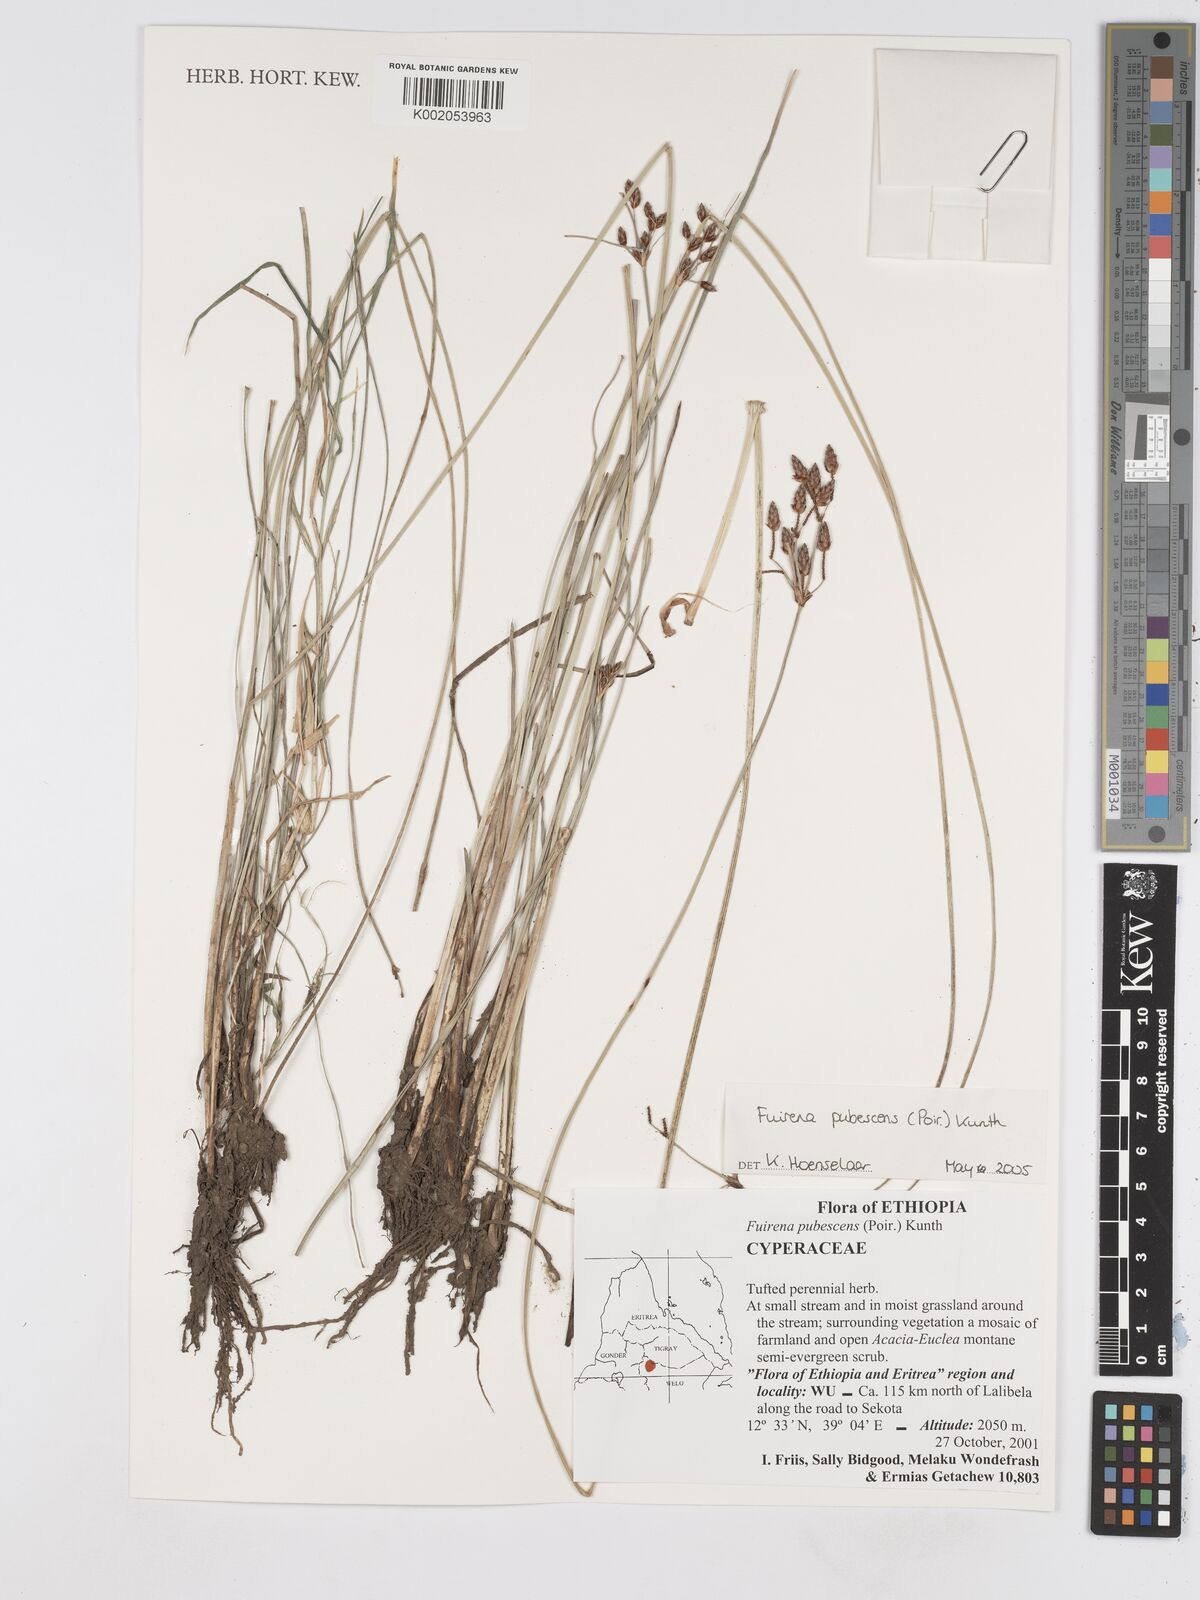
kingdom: Plantae
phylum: Tracheophyta
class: Liliopsida
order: Poales
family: Cyperaceae
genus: Fuirena
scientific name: Fuirena pubescens
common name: Hairy sedge
